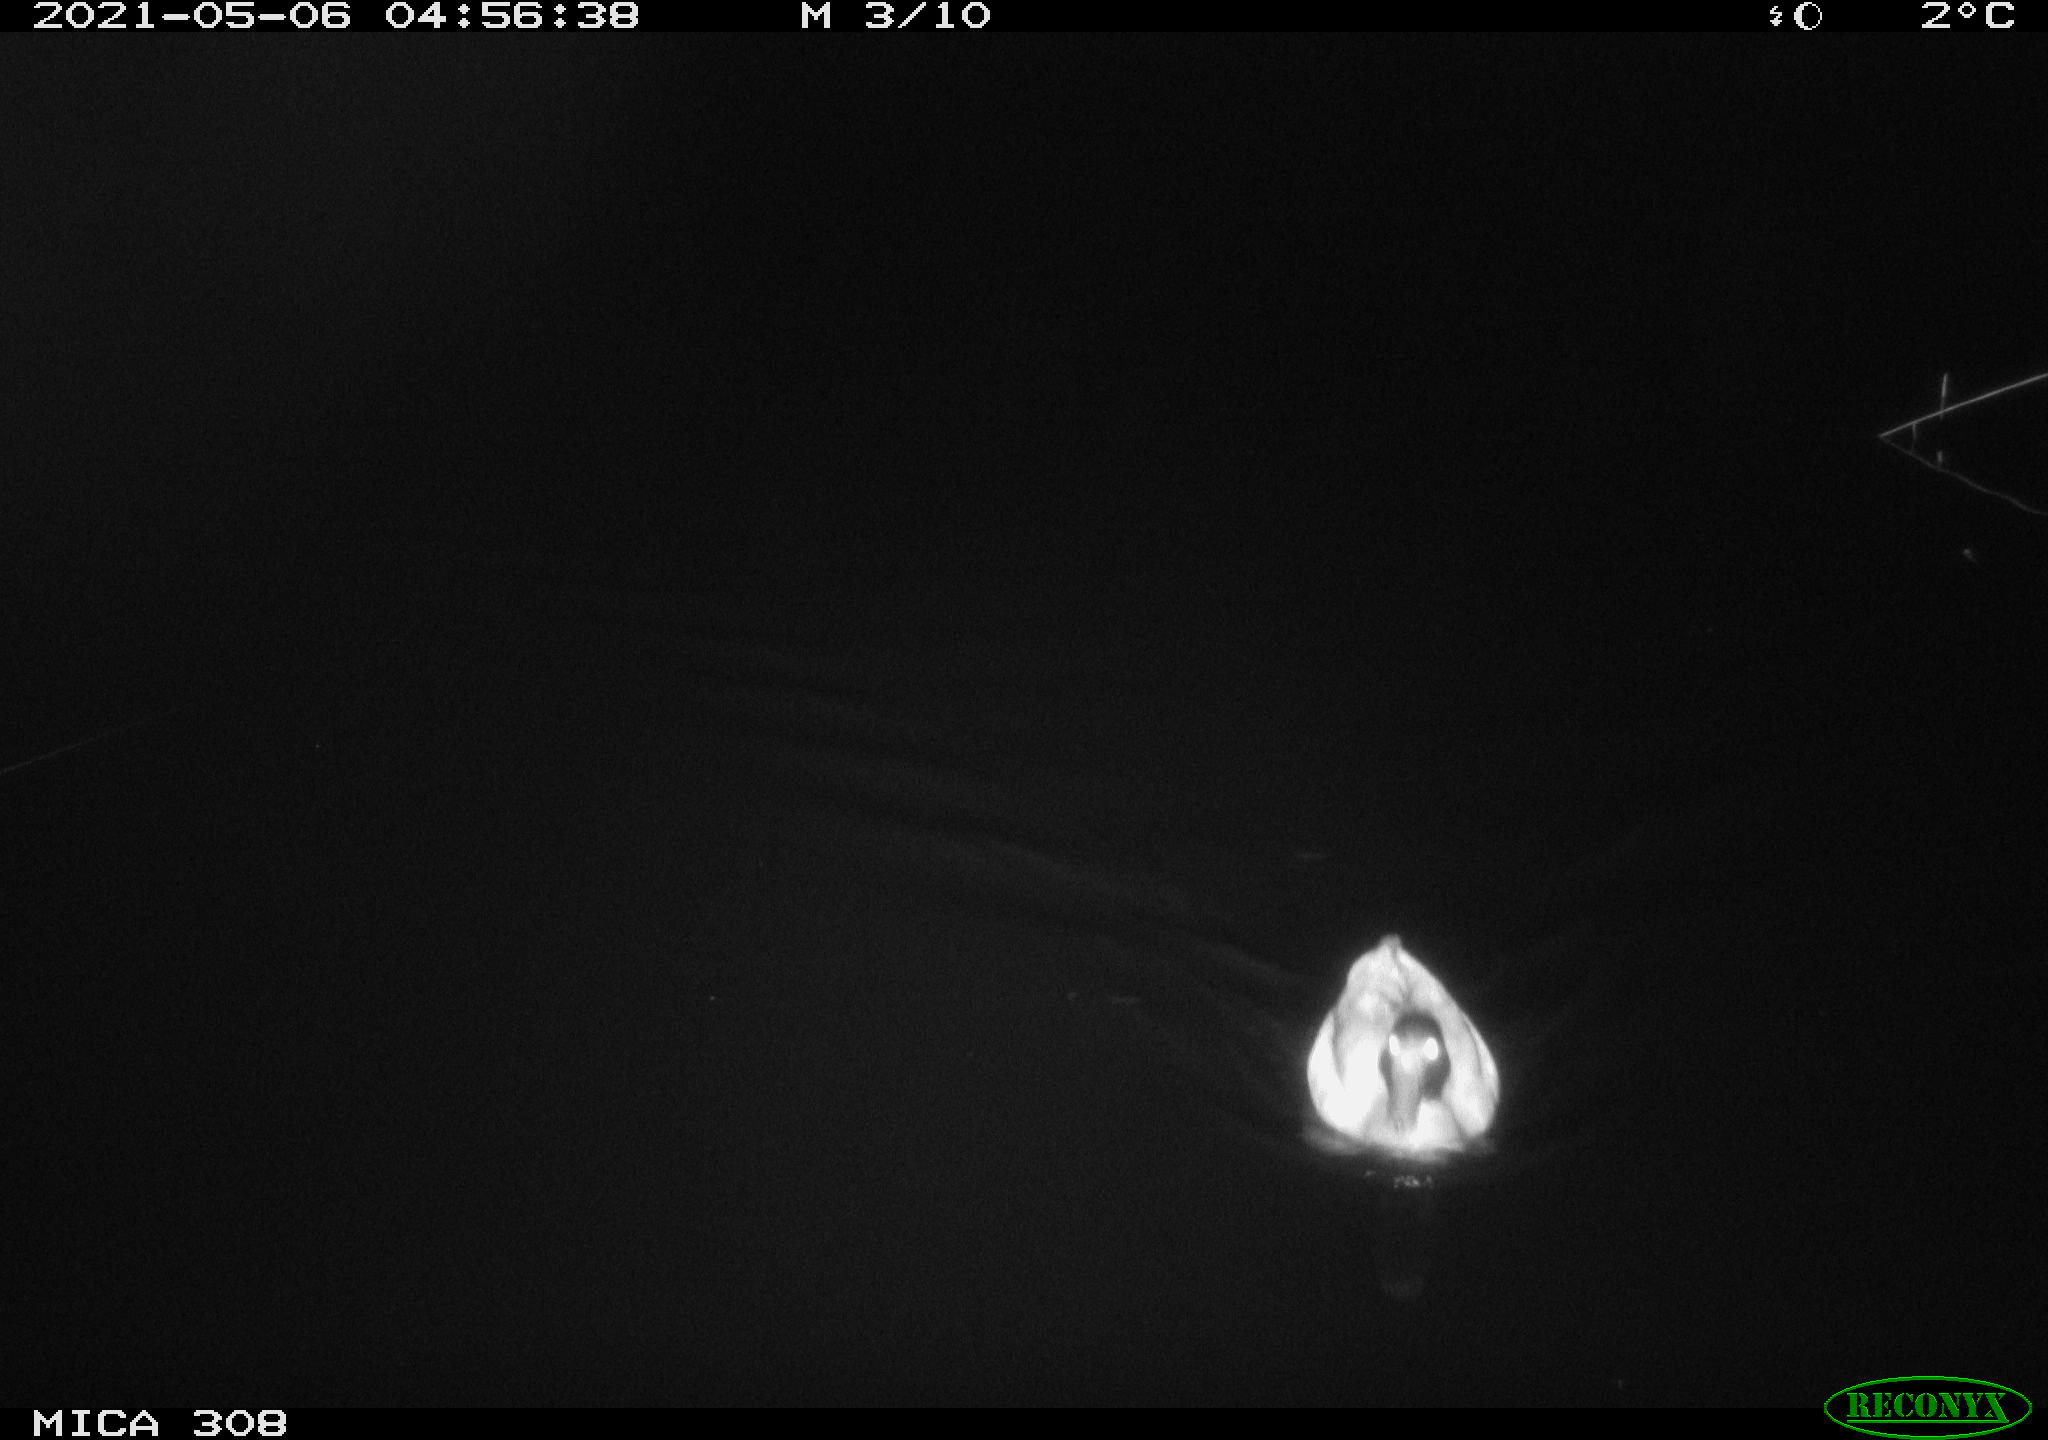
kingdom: Animalia
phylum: Chordata
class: Aves
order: Anseriformes
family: Anatidae
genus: Anas
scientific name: Anas platyrhynchos
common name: Mallard
